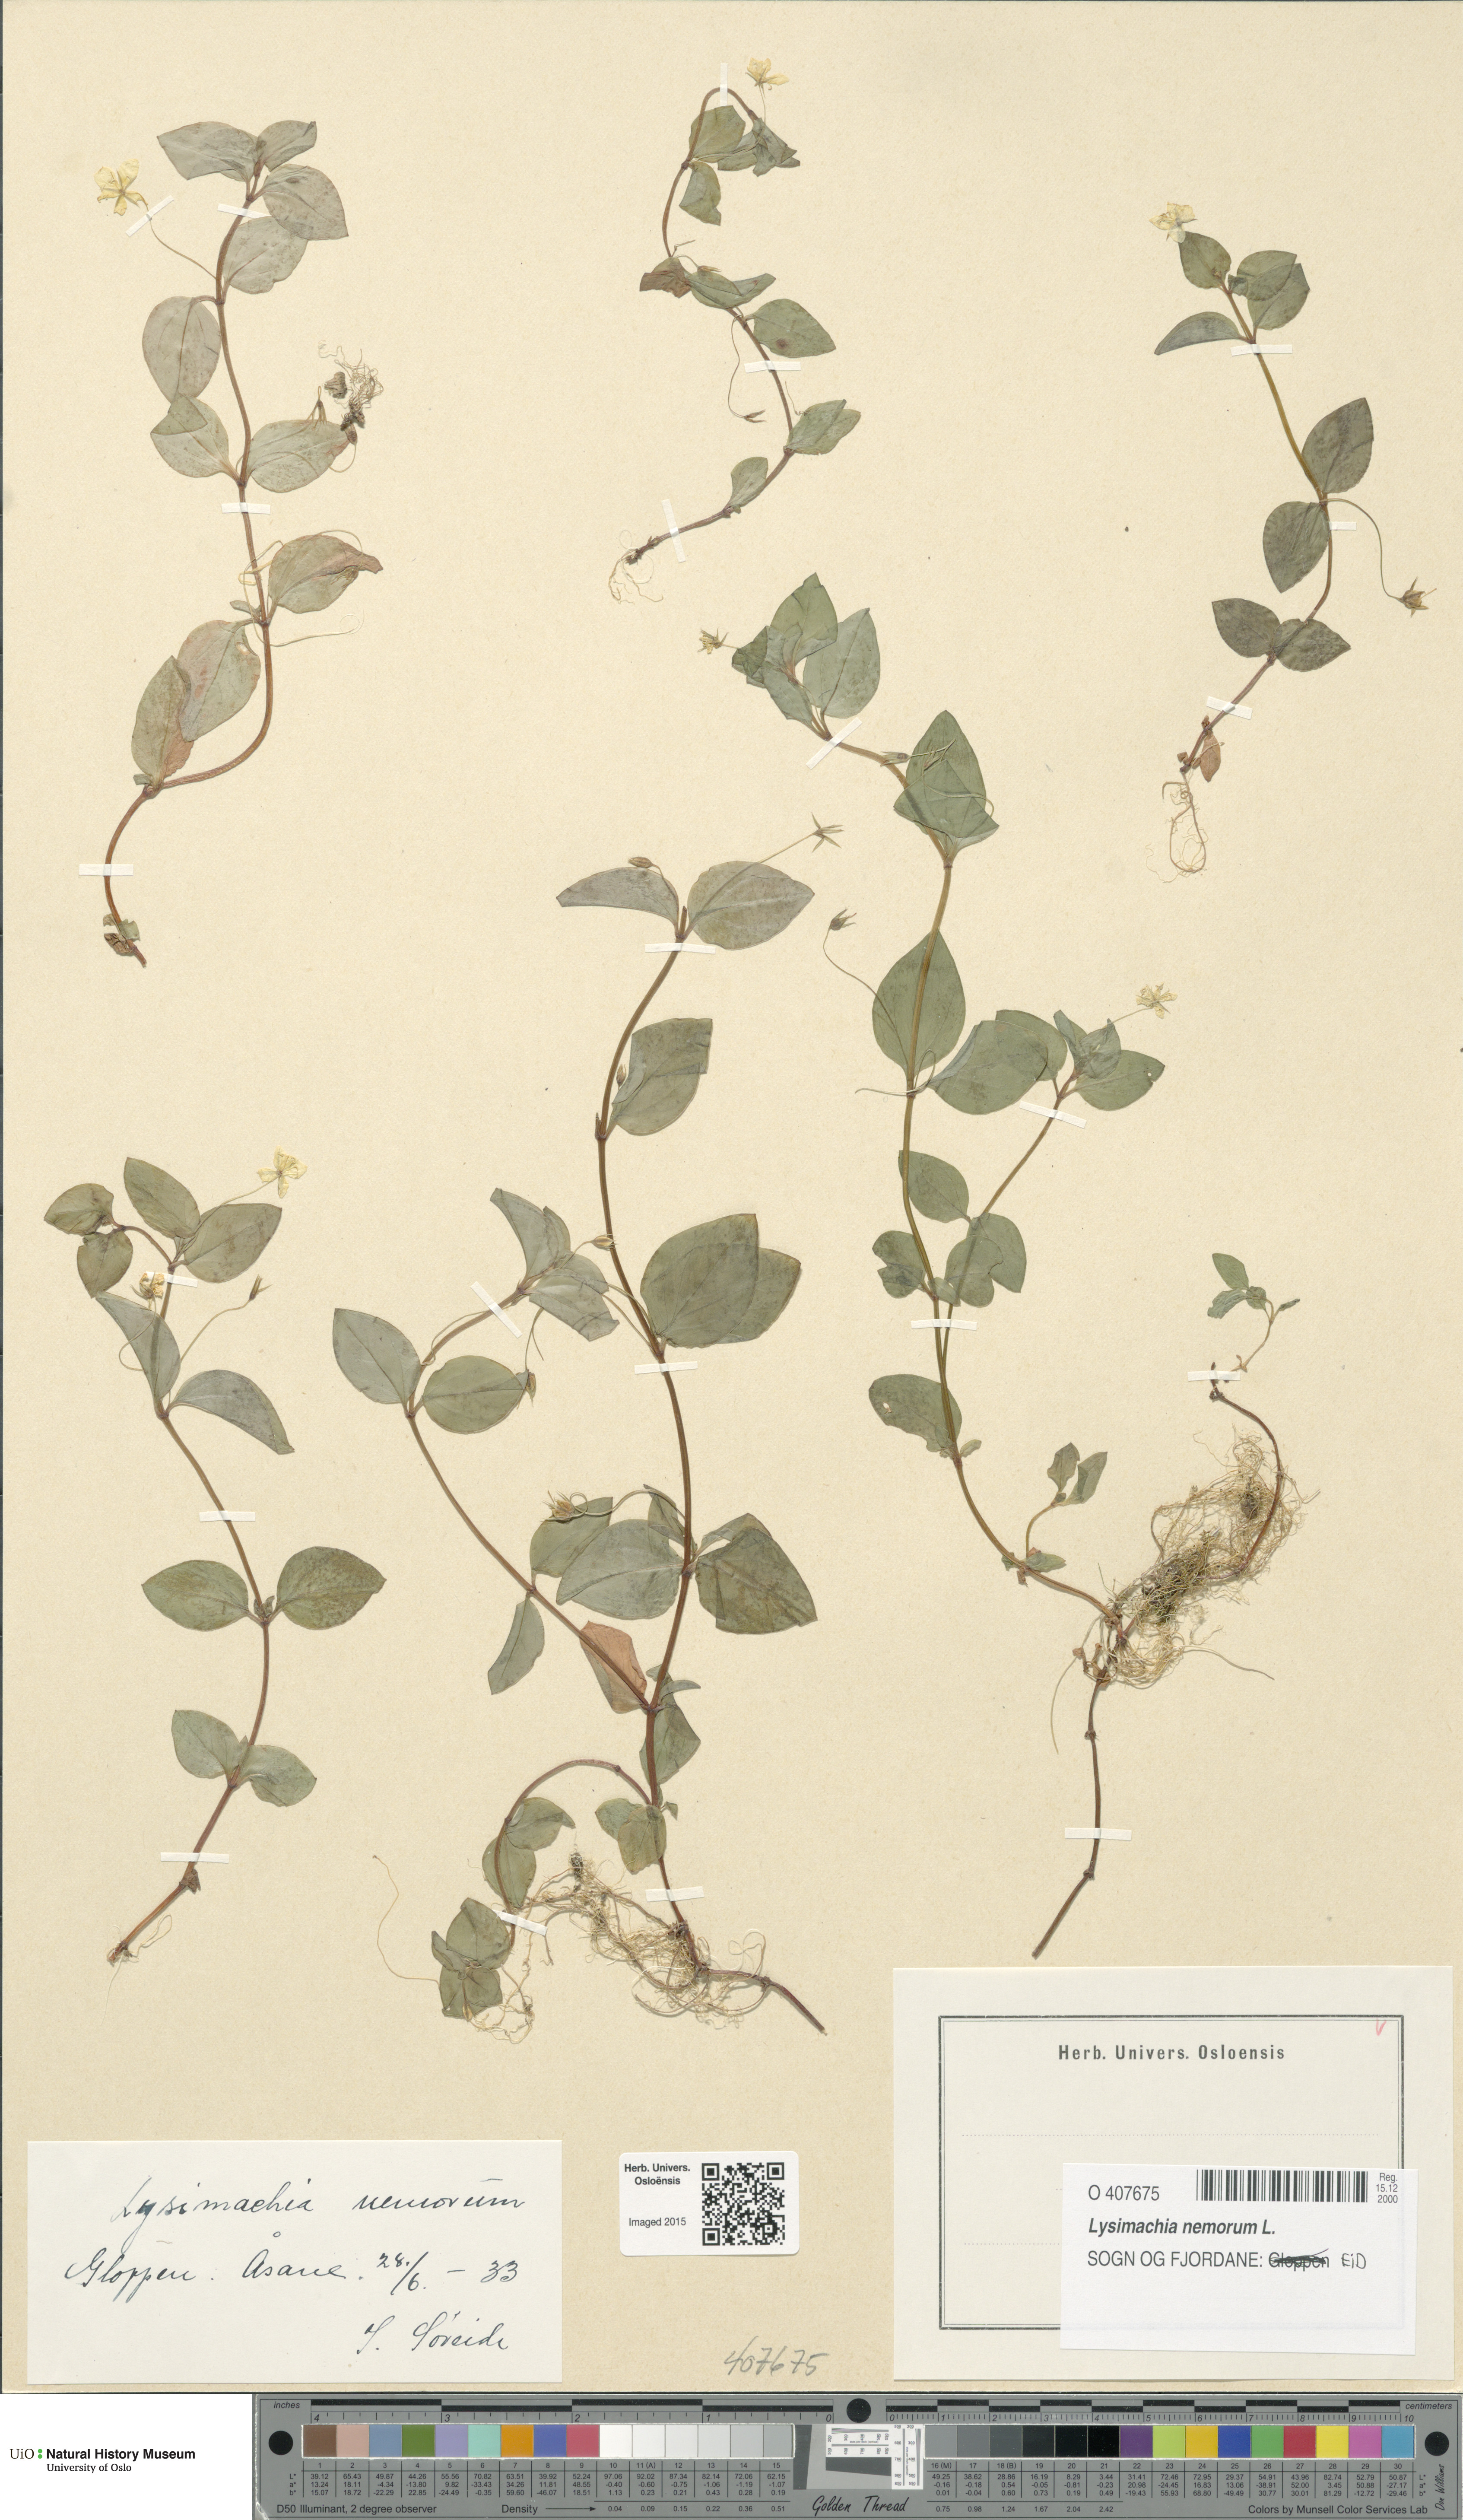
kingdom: Plantae
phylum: Tracheophyta
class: Magnoliopsida
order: Ericales
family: Primulaceae
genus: Lysimachia
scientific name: Lysimachia nemorum
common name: Yellow pimpernel
